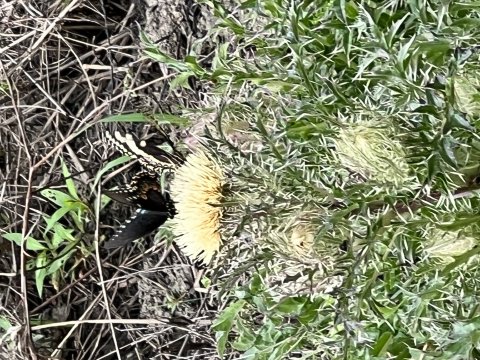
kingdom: Animalia
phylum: Arthropoda
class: Insecta
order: Lepidoptera
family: Papilionidae
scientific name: Papilionidae
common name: Swallowtails and Parnassians
